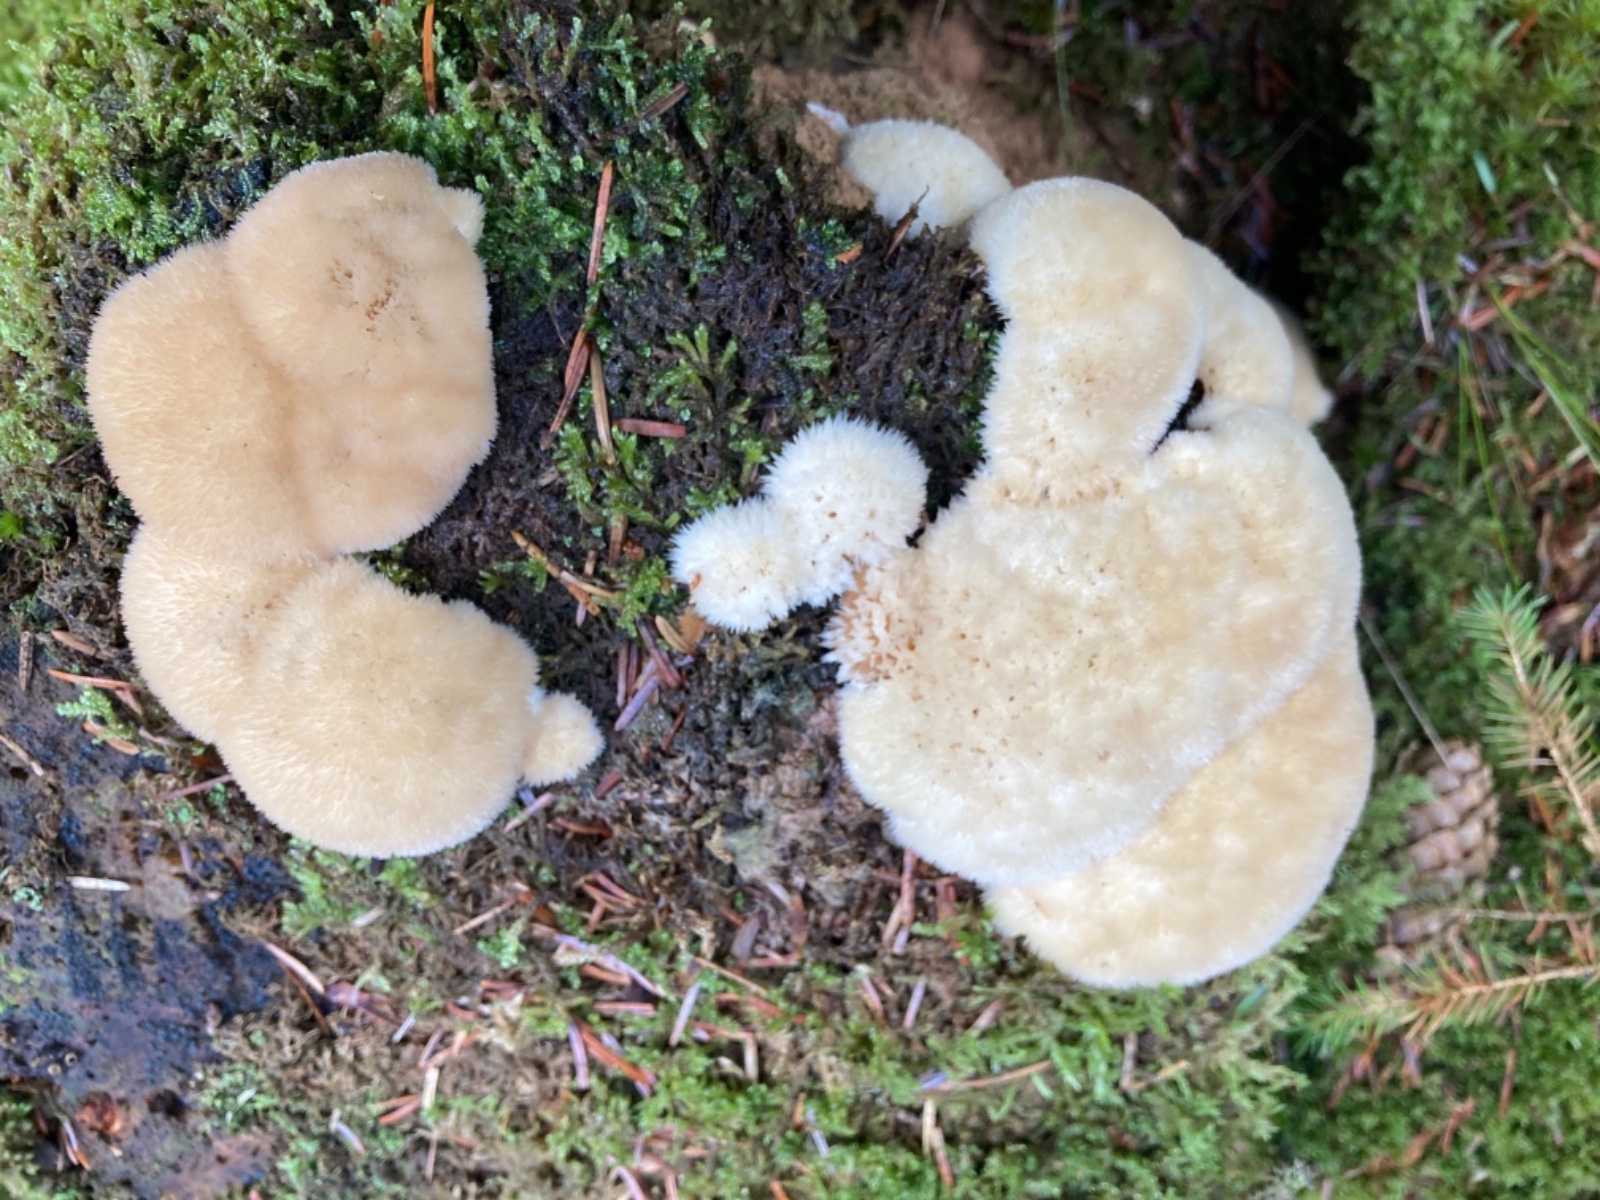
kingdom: Fungi
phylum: Basidiomycota
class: Agaricomycetes
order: Polyporales
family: Dacryobolaceae
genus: Postia
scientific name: Postia ptychogaster
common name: støvende kødporesvamp
